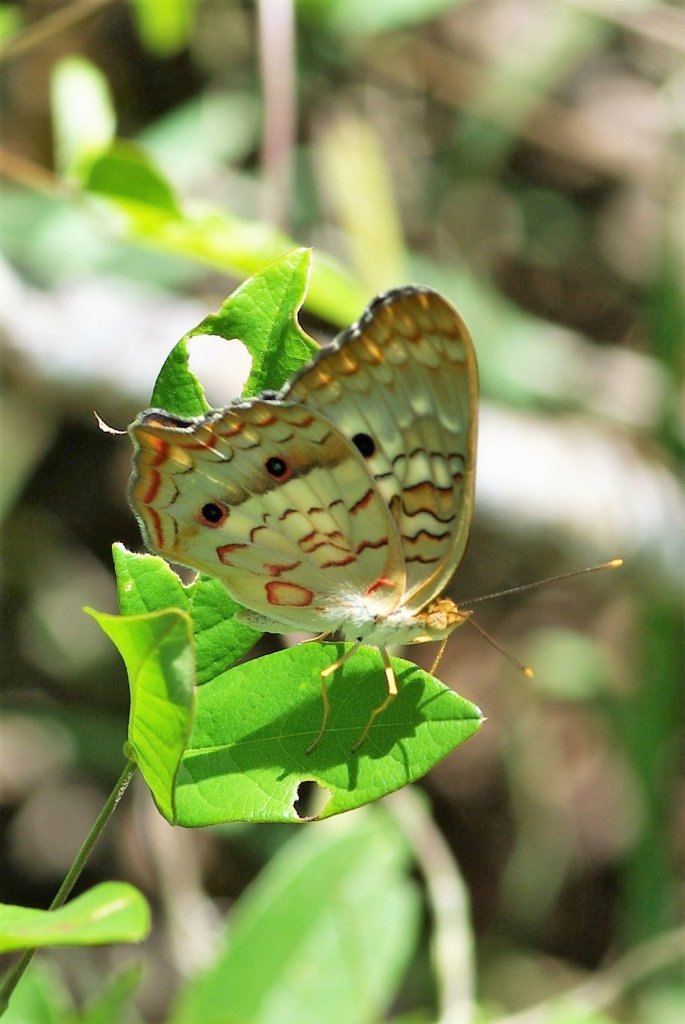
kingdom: Animalia
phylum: Arthropoda
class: Insecta
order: Lepidoptera
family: Nymphalidae
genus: Anartia
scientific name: Anartia jatrophae
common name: White Peacock
